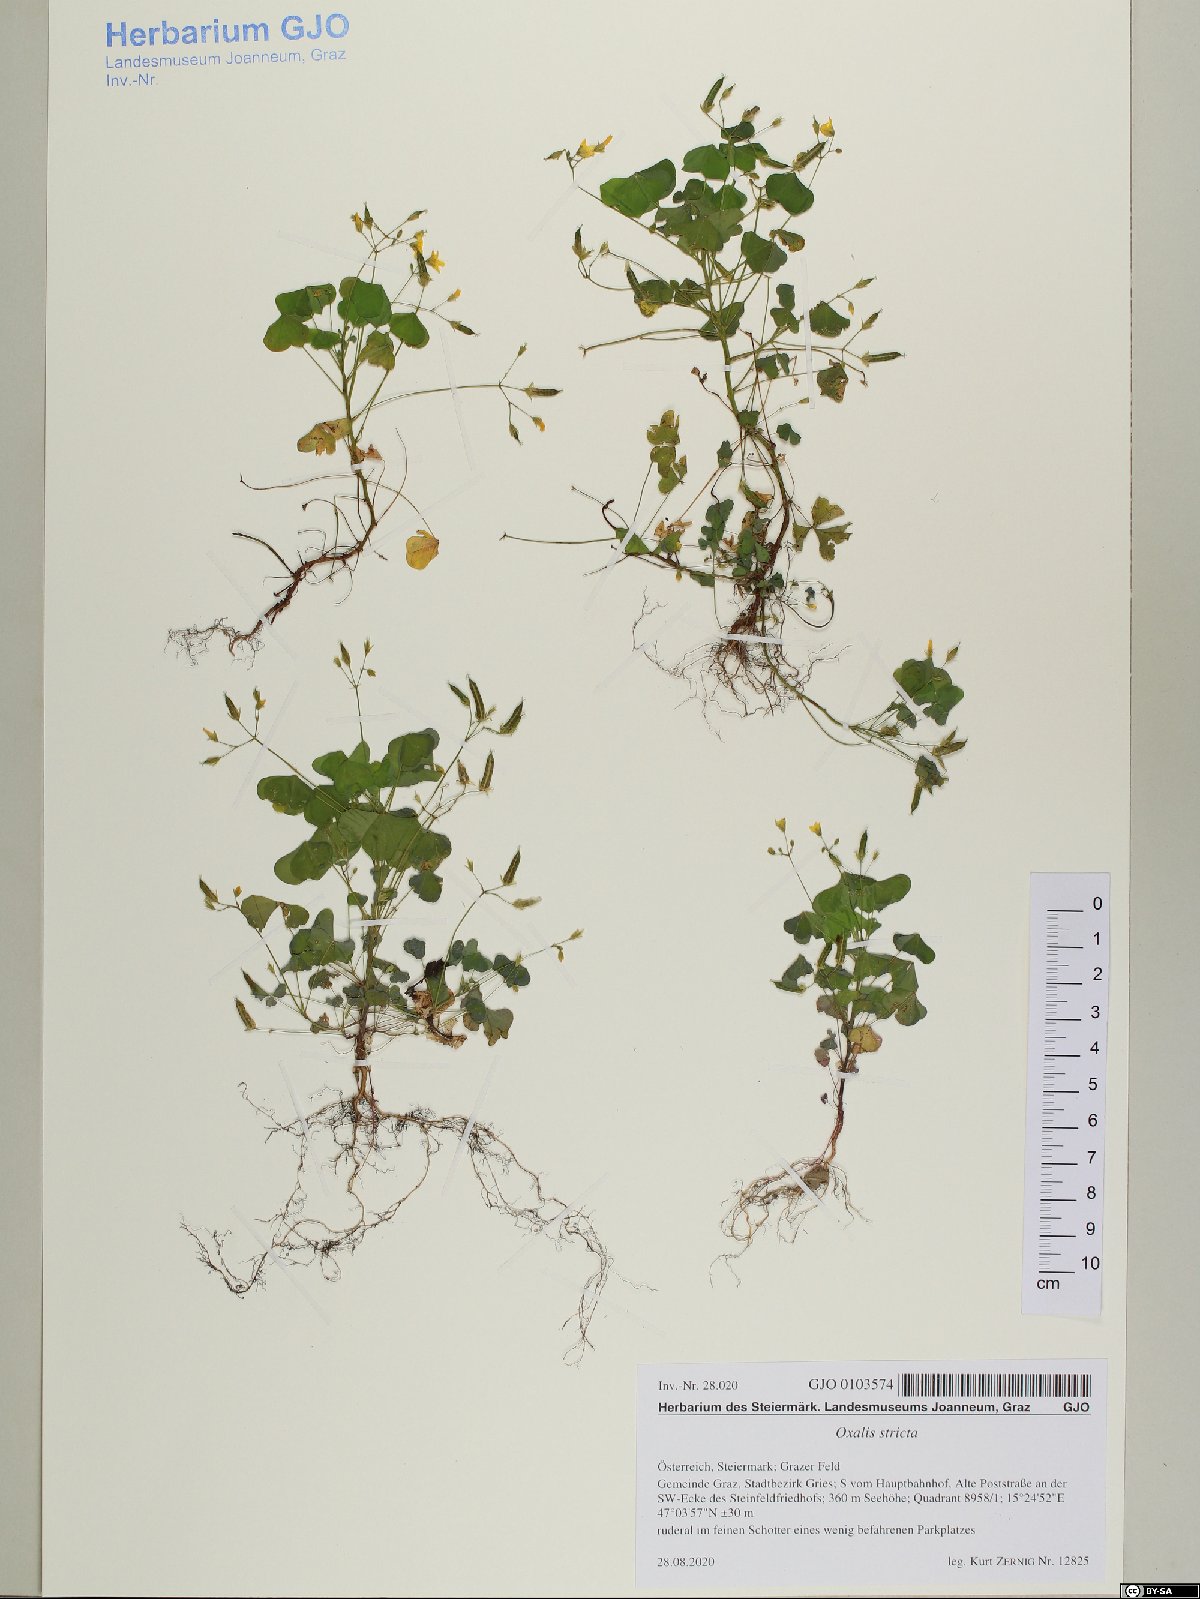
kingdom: Plantae
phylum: Tracheophyta
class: Magnoliopsida
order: Oxalidales
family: Oxalidaceae
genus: Oxalis
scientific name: Oxalis stricta
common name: Upright yellow-sorrel
